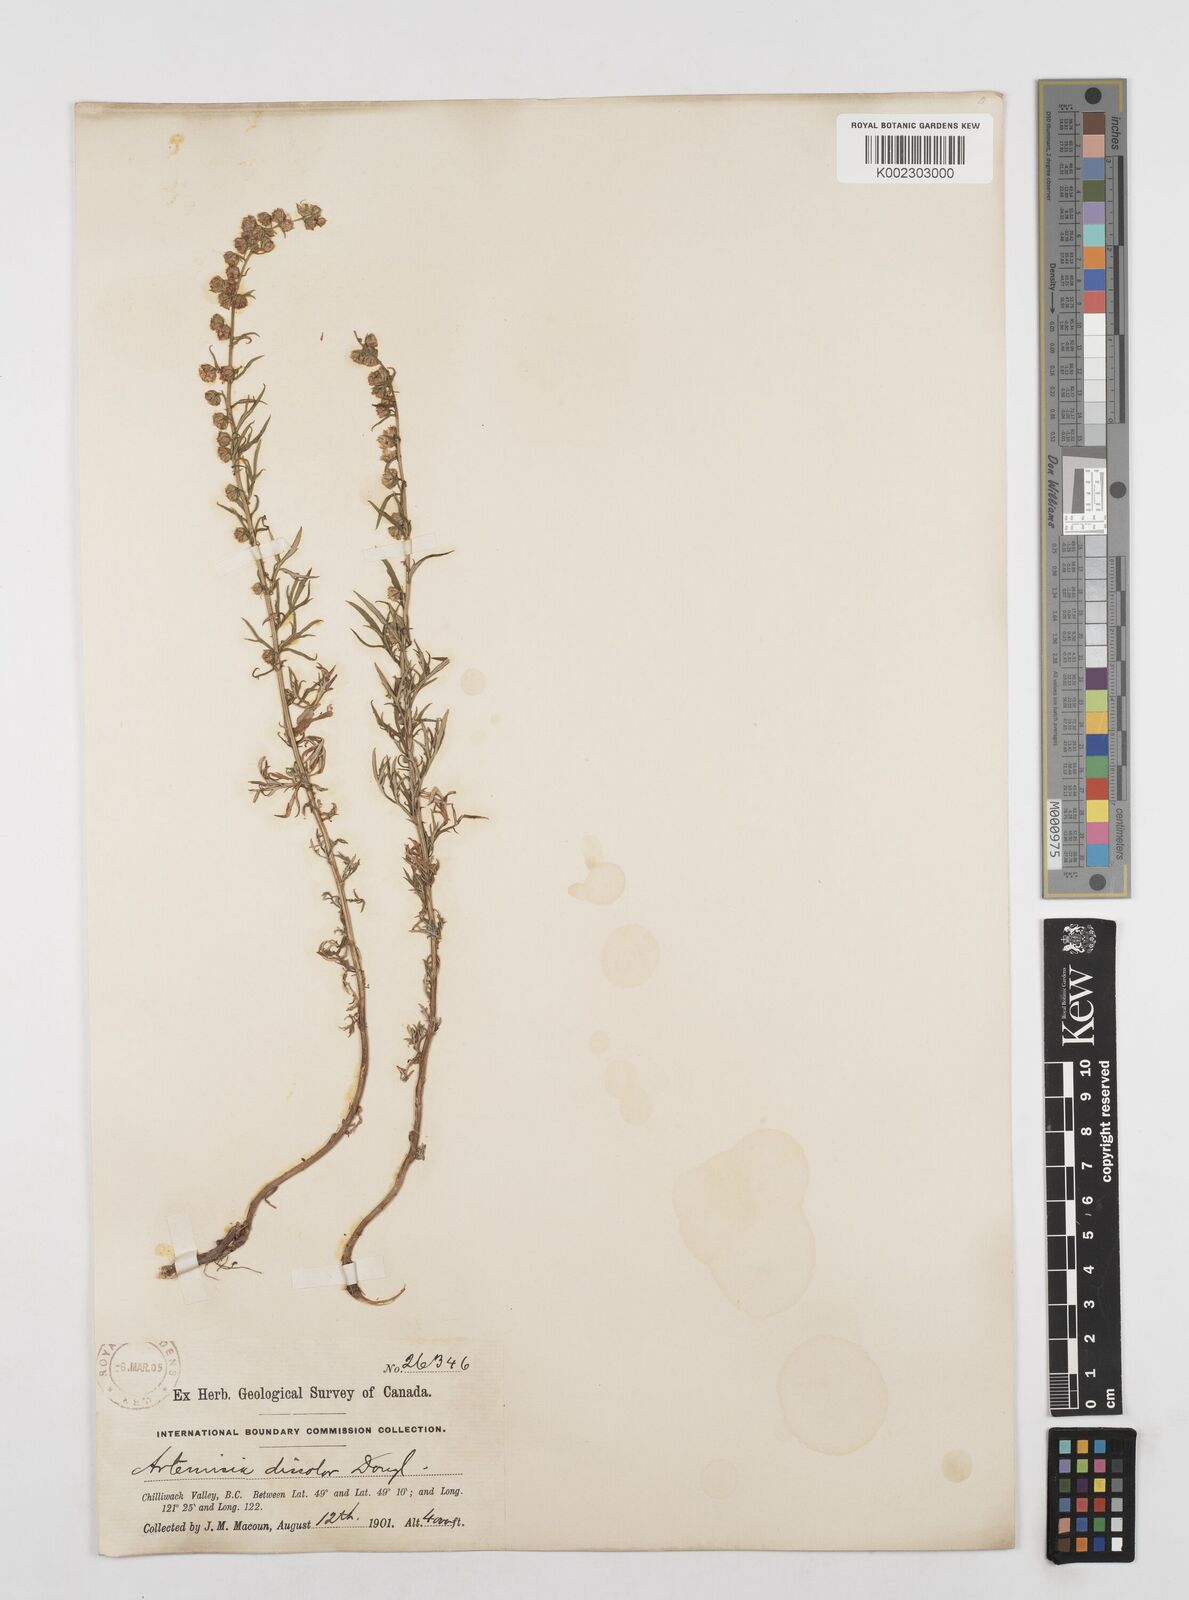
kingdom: Plantae
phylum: Tracheophyta
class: Magnoliopsida
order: Asterales
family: Asteraceae
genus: Artemisia
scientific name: Artemisia michauxiana
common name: Lemon sagewort
